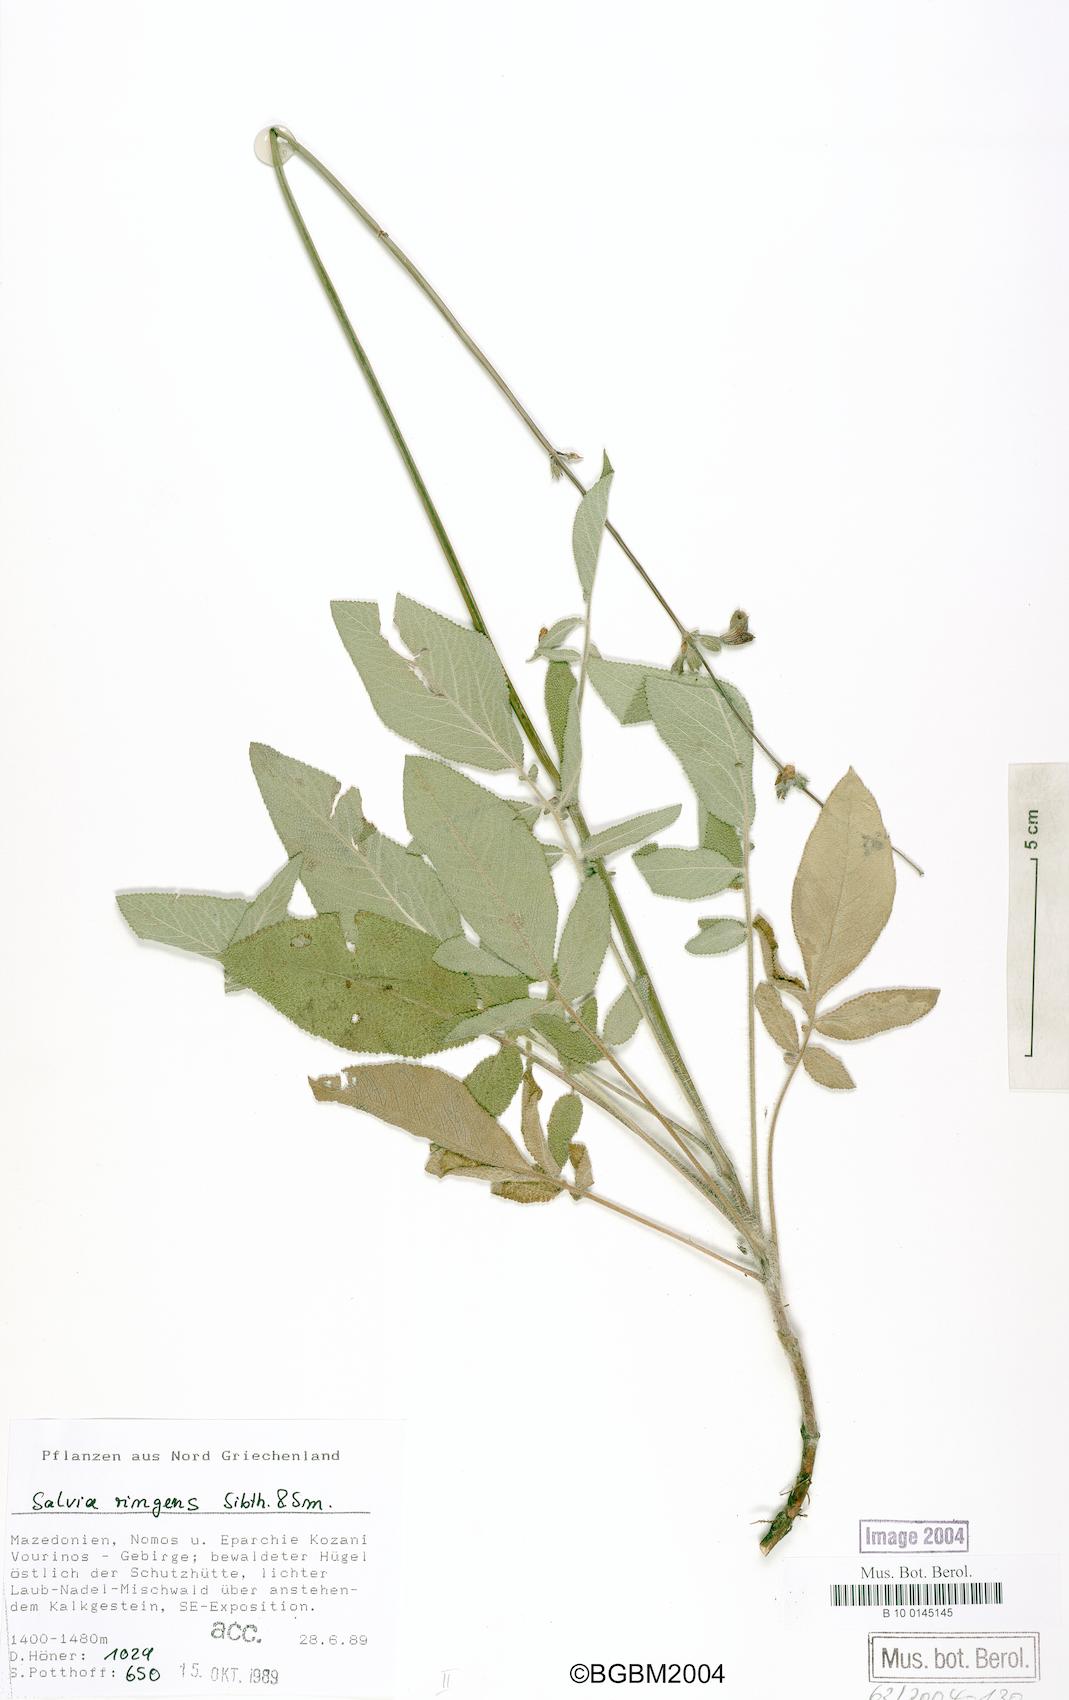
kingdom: Plantae
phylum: Tracheophyta
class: Magnoliopsida
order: Lamiales
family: Lamiaceae
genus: Salvia
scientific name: Salvia ringens
